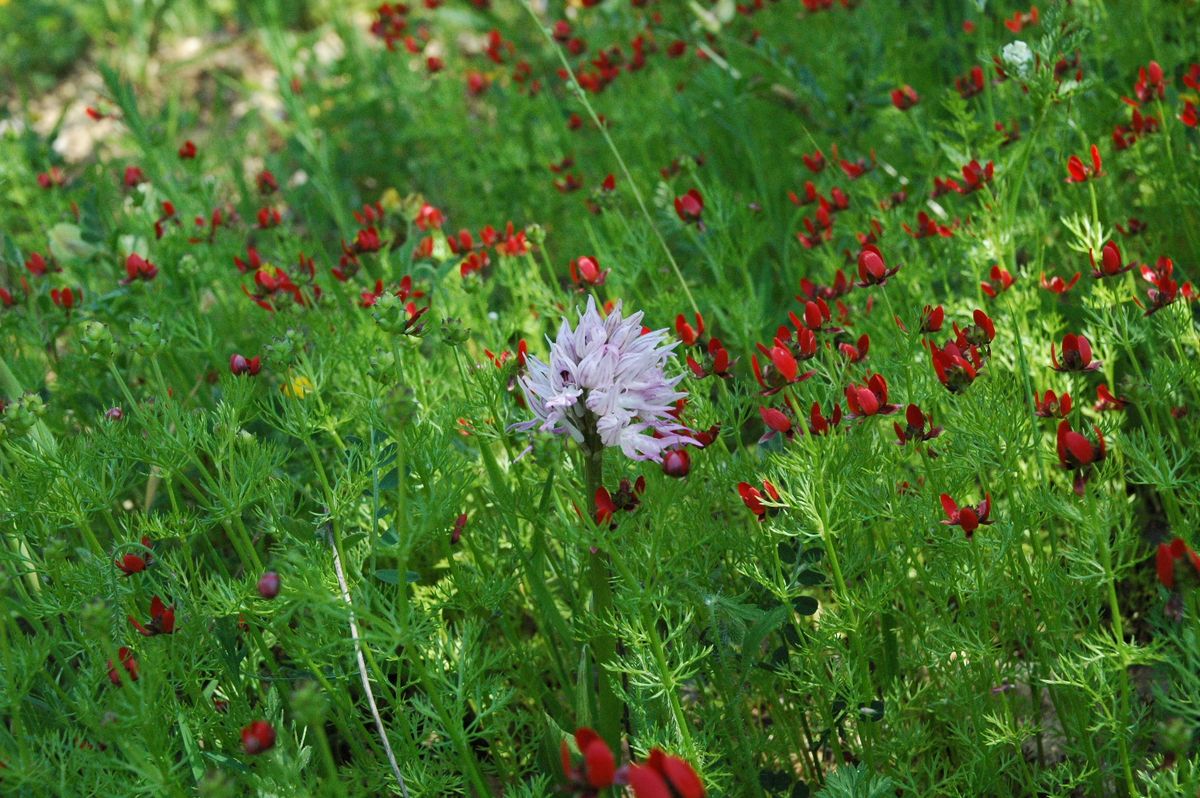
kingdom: Plantae
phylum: Tracheophyta
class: Liliopsida
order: Asparagales
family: Orchidaceae
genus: Orchis
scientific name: Orchis italica
